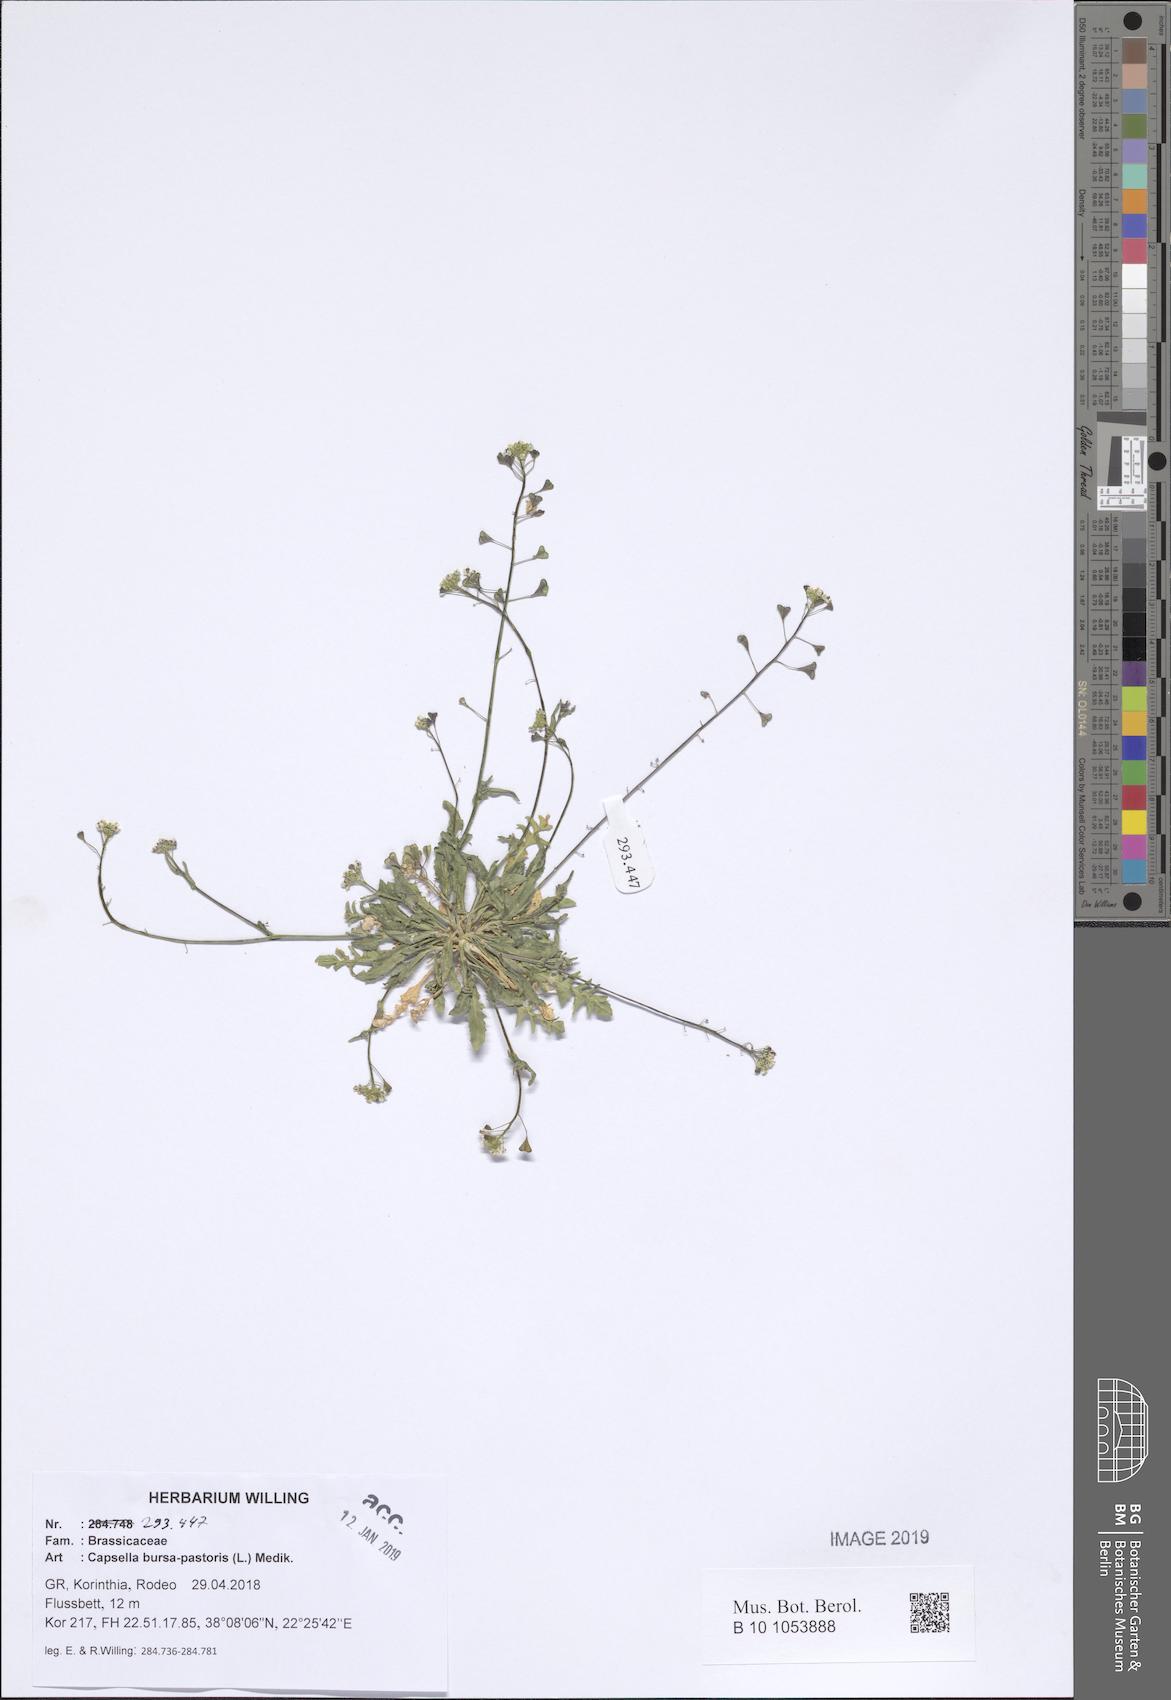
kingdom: Plantae
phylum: Tracheophyta
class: Magnoliopsida
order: Brassicales
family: Brassicaceae
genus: Capsella
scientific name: Capsella bursa-pastoris
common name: Shepherd's purse
